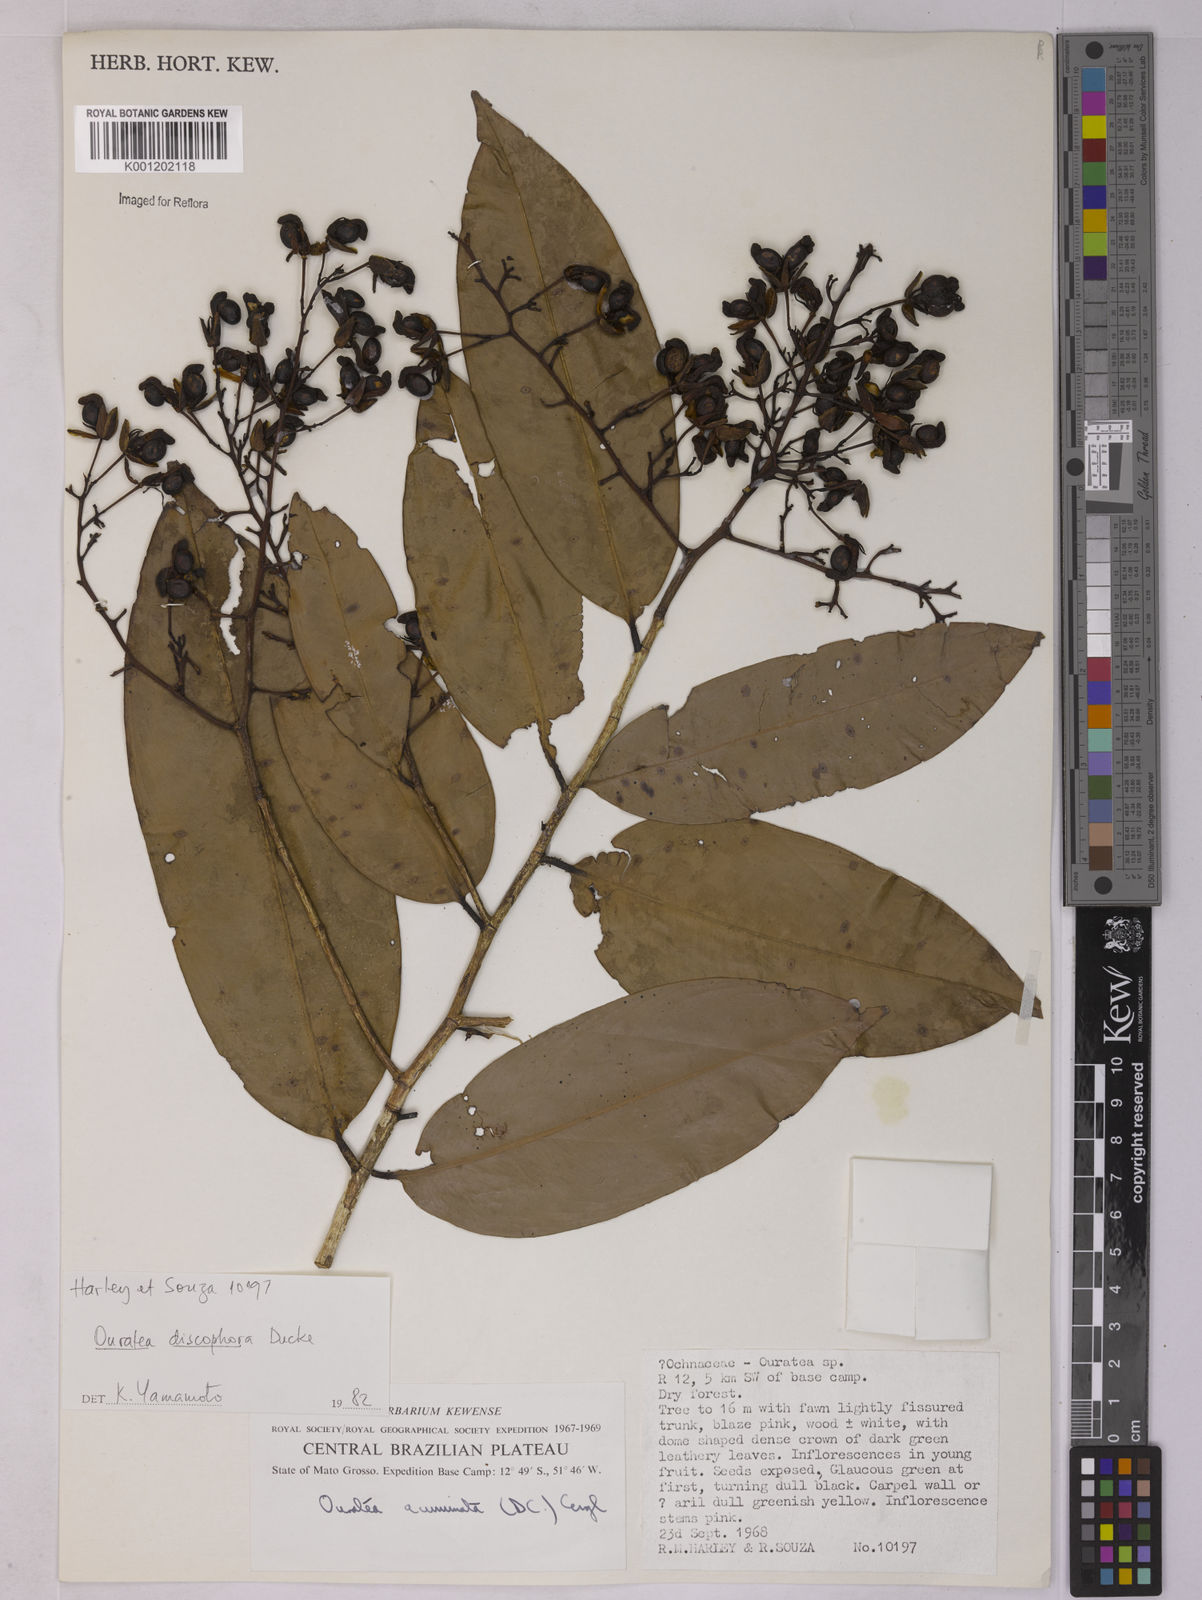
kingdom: Plantae
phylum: Tracheophyta
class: Magnoliopsida
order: Malpighiales
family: Ochnaceae
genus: Ouratea
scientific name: Ouratea discophora
